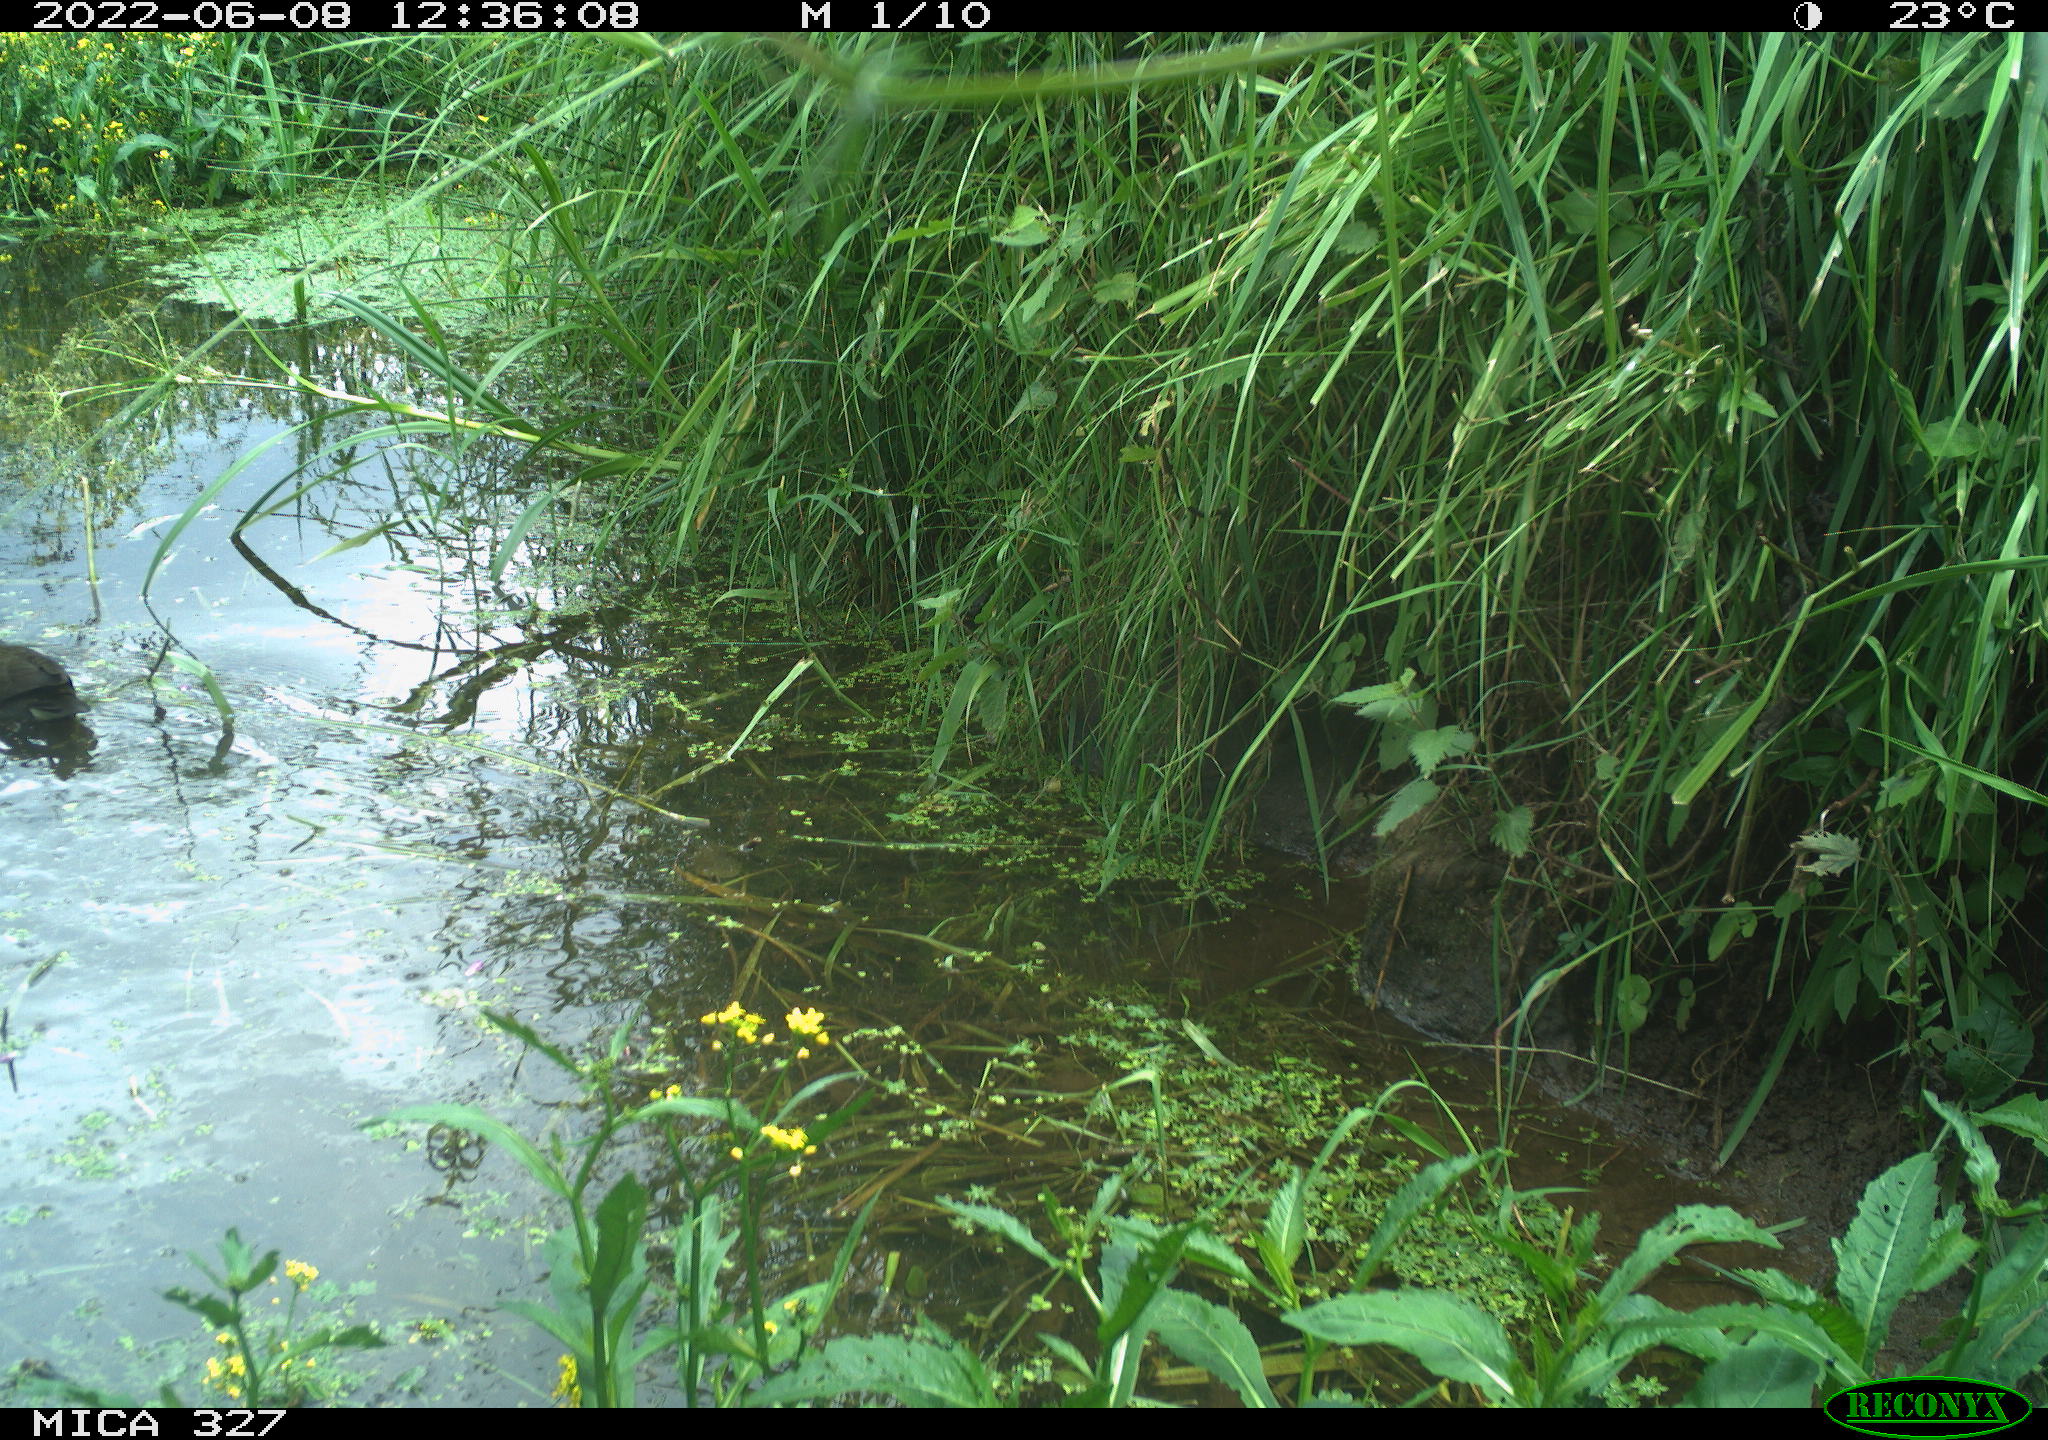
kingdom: Animalia
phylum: Chordata
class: Aves
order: Gruiformes
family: Rallidae
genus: Gallinula
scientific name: Gallinula chloropus
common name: Common moorhen
